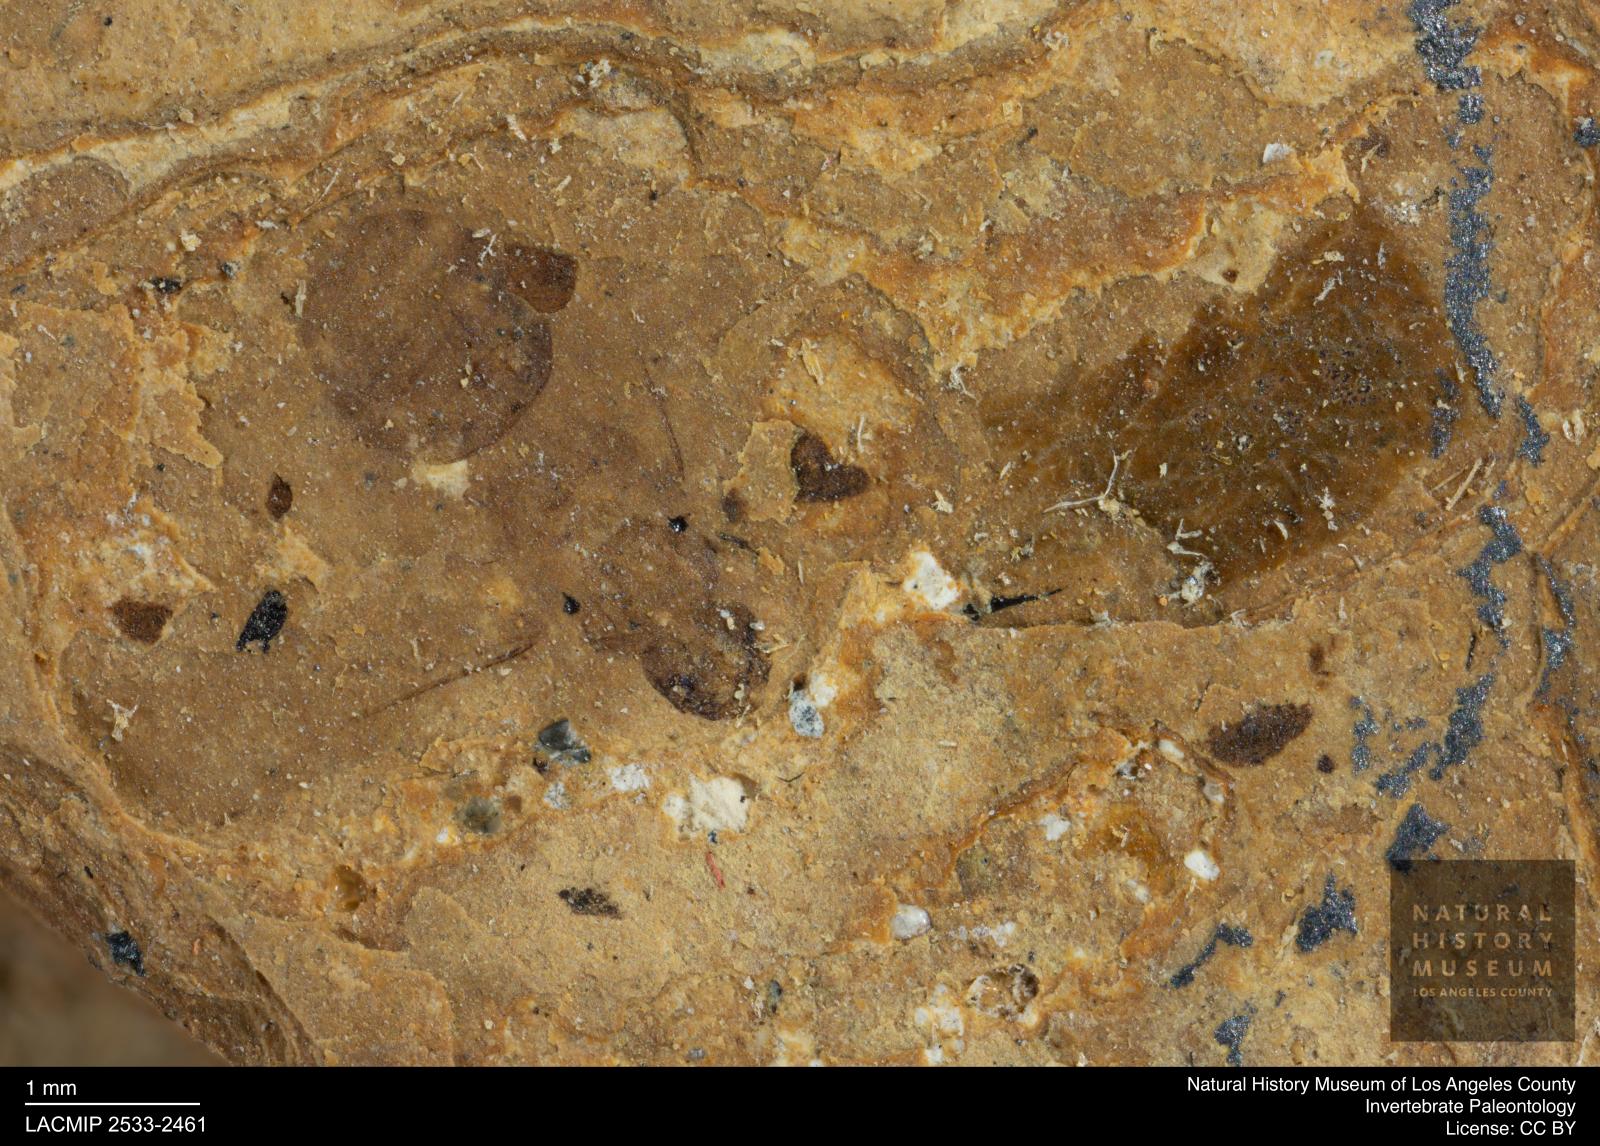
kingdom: Animalia
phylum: Arthropoda
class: Insecta
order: Hymenoptera
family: Formicidae
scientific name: Formicidae
